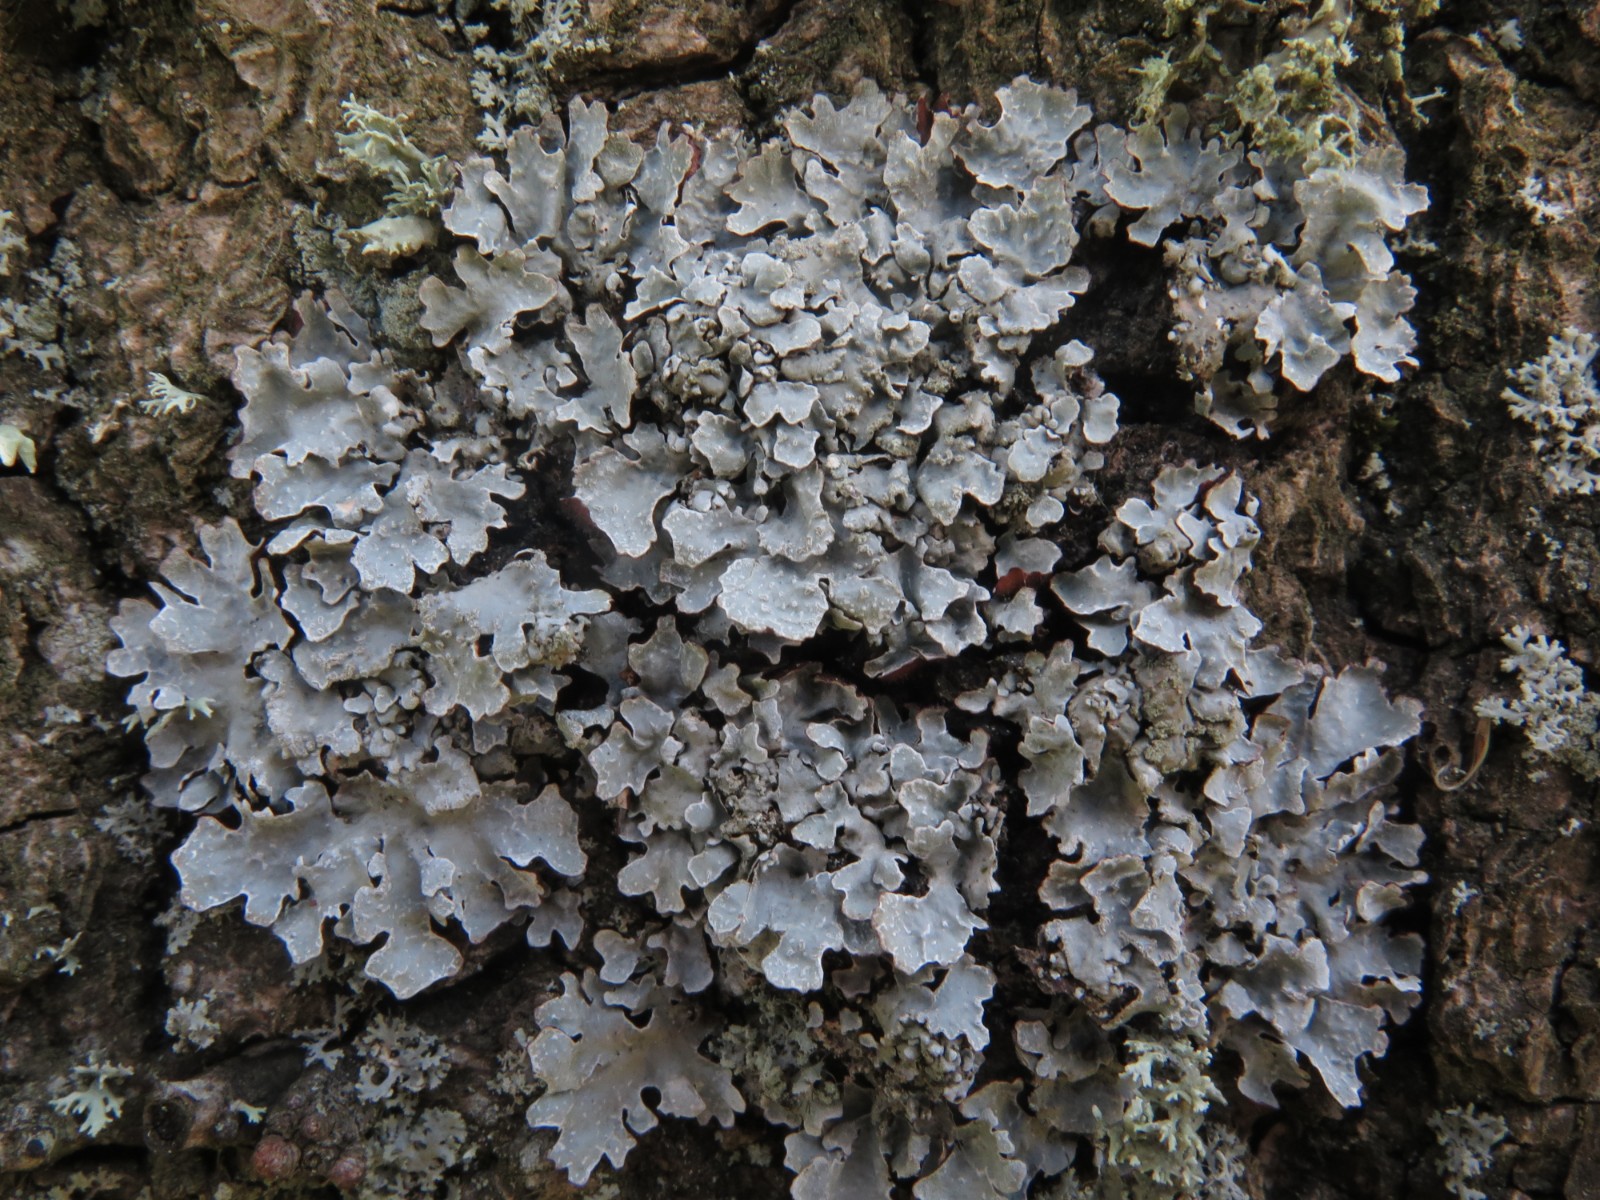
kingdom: Fungi
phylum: Ascomycota
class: Lecanoromycetes
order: Lecanorales
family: Parmeliaceae
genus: Parmelia
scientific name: Parmelia sulcata
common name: rynket skållav
